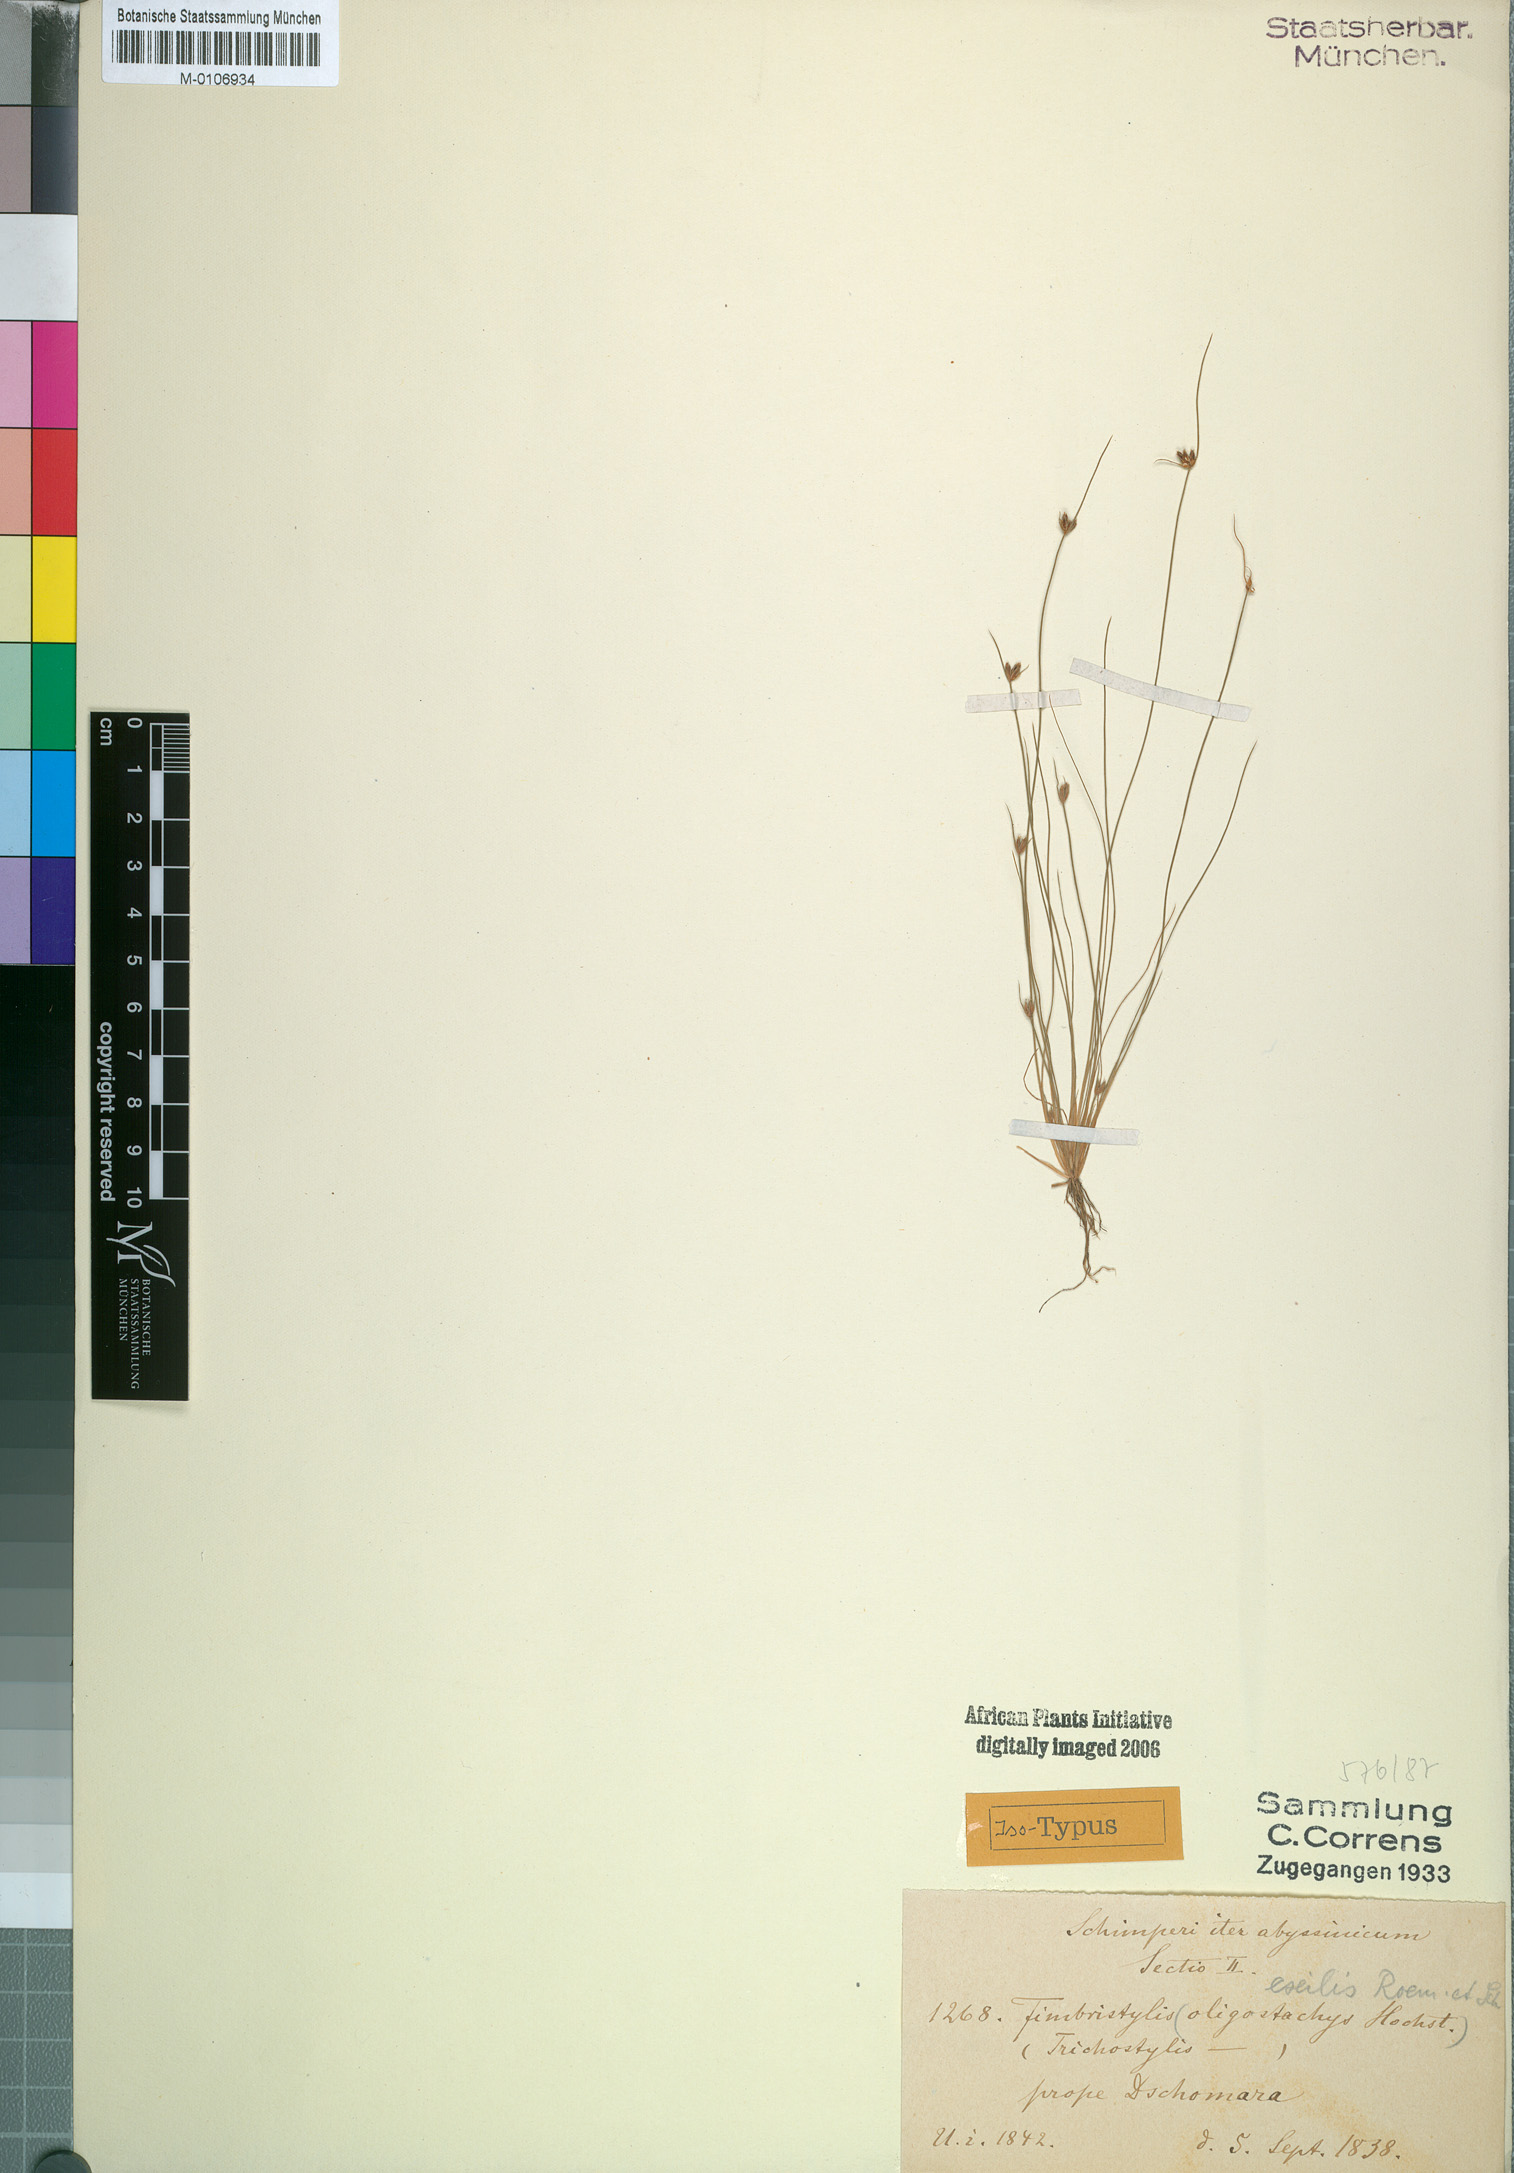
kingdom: Plantae
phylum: Tracheophyta
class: Liliopsida
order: Poales
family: Cyperaceae
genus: Bulbostylis
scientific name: Bulbostylis hispidula
